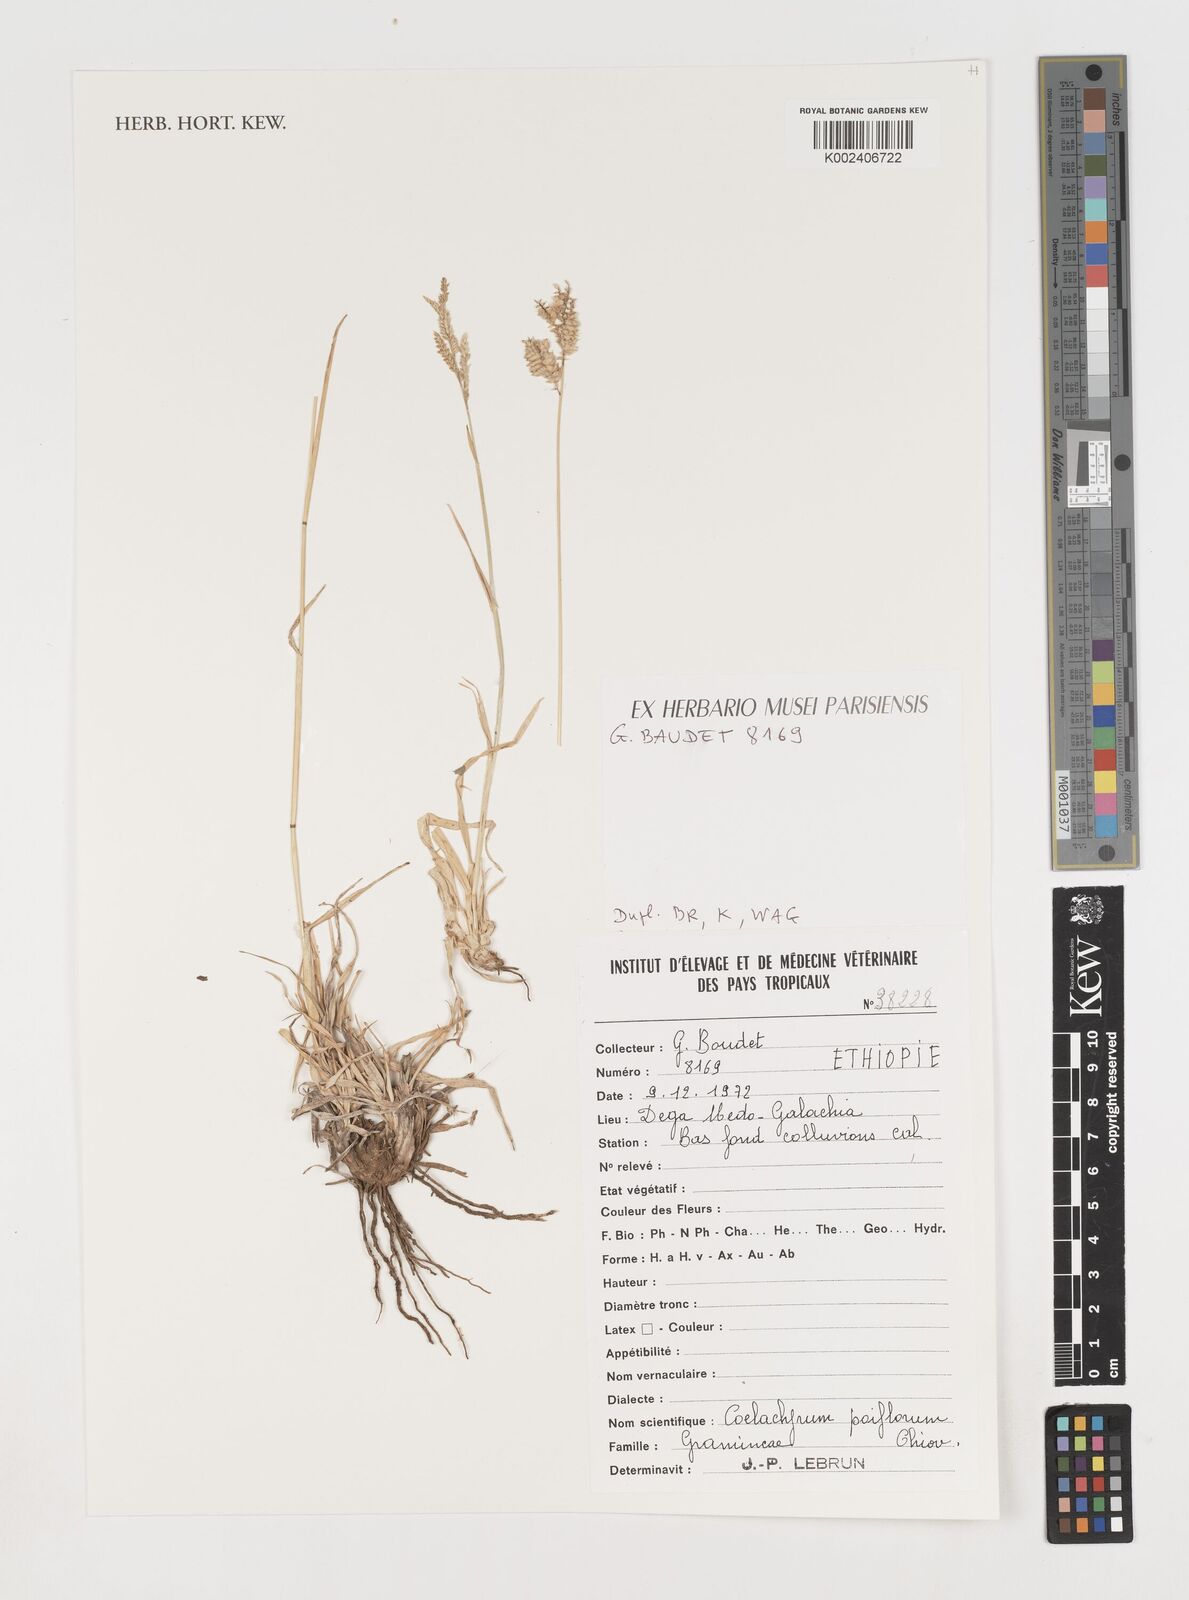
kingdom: Plantae
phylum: Tracheophyta
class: Liliopsida
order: Poales
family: Poaceae
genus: Coelachyrum
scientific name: Coelachyrum poiflorum
